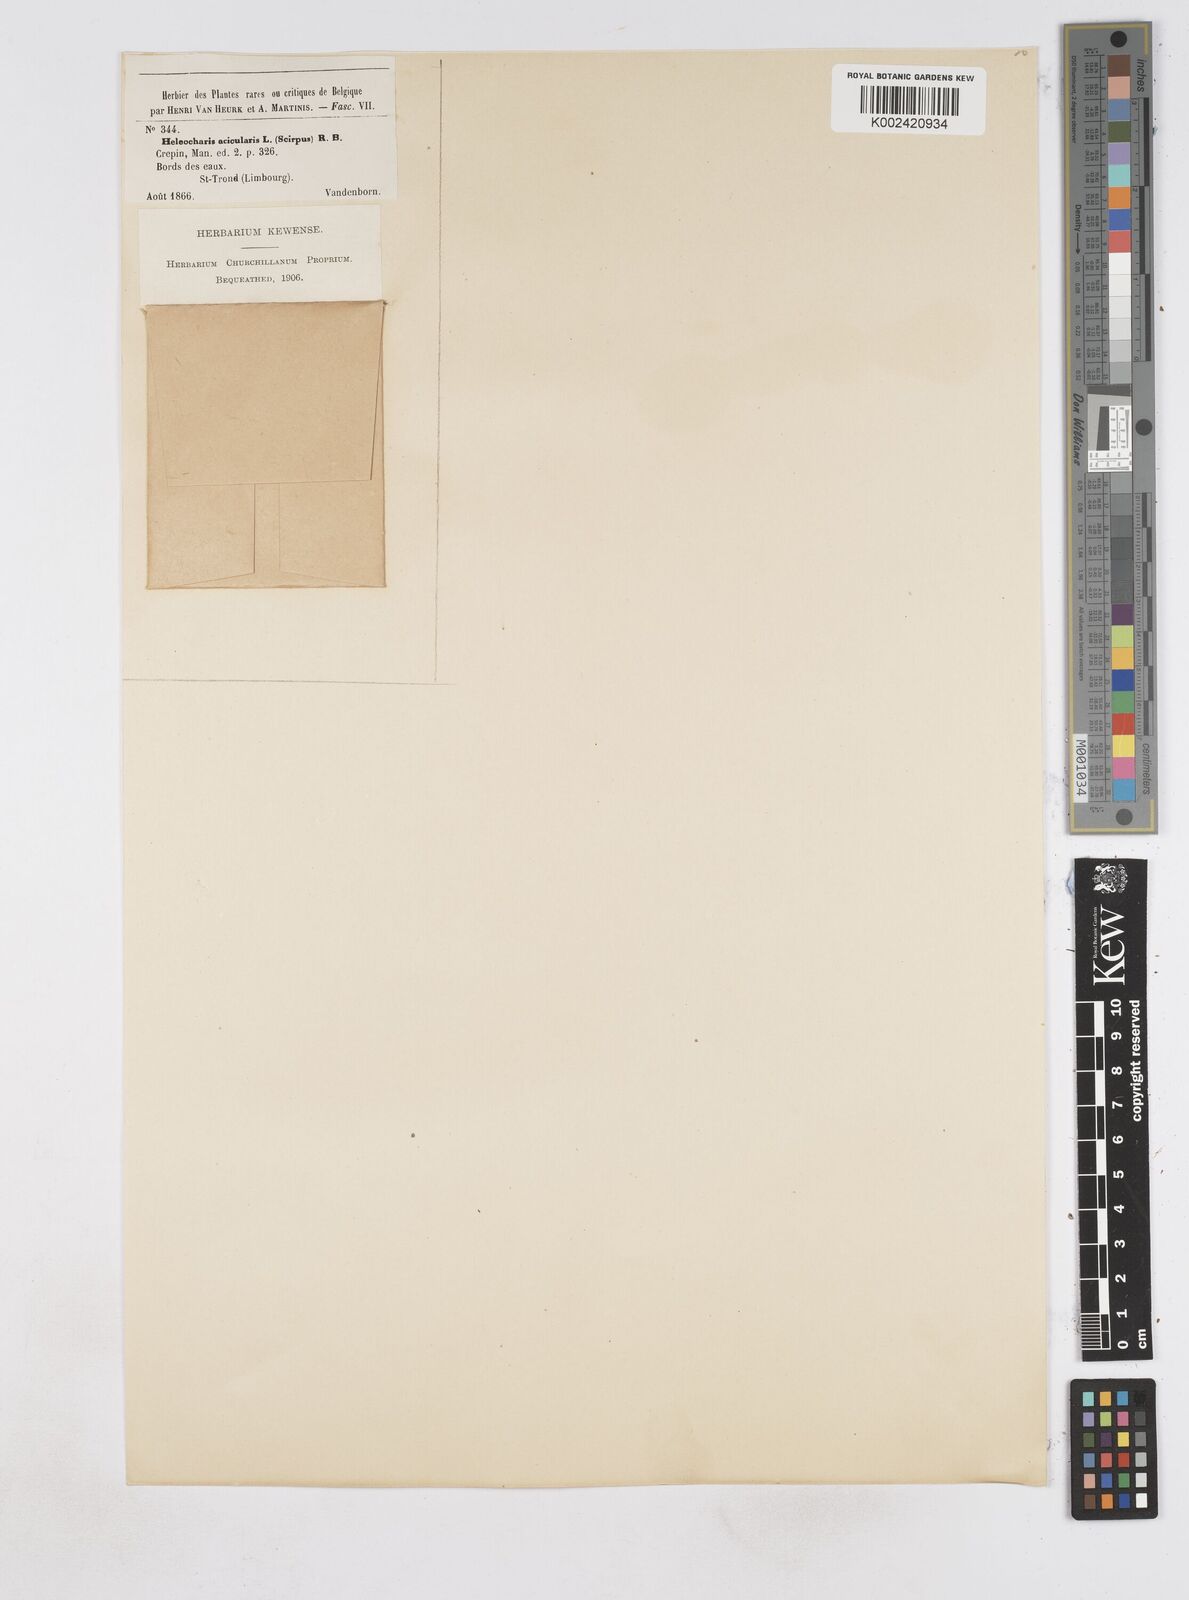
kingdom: Plantae
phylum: Tracheophyta
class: Liliopsida
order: Poales
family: Cyperaceae
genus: Eleocharis
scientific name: Eleocharis acicularis
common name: Needle spike-rush
